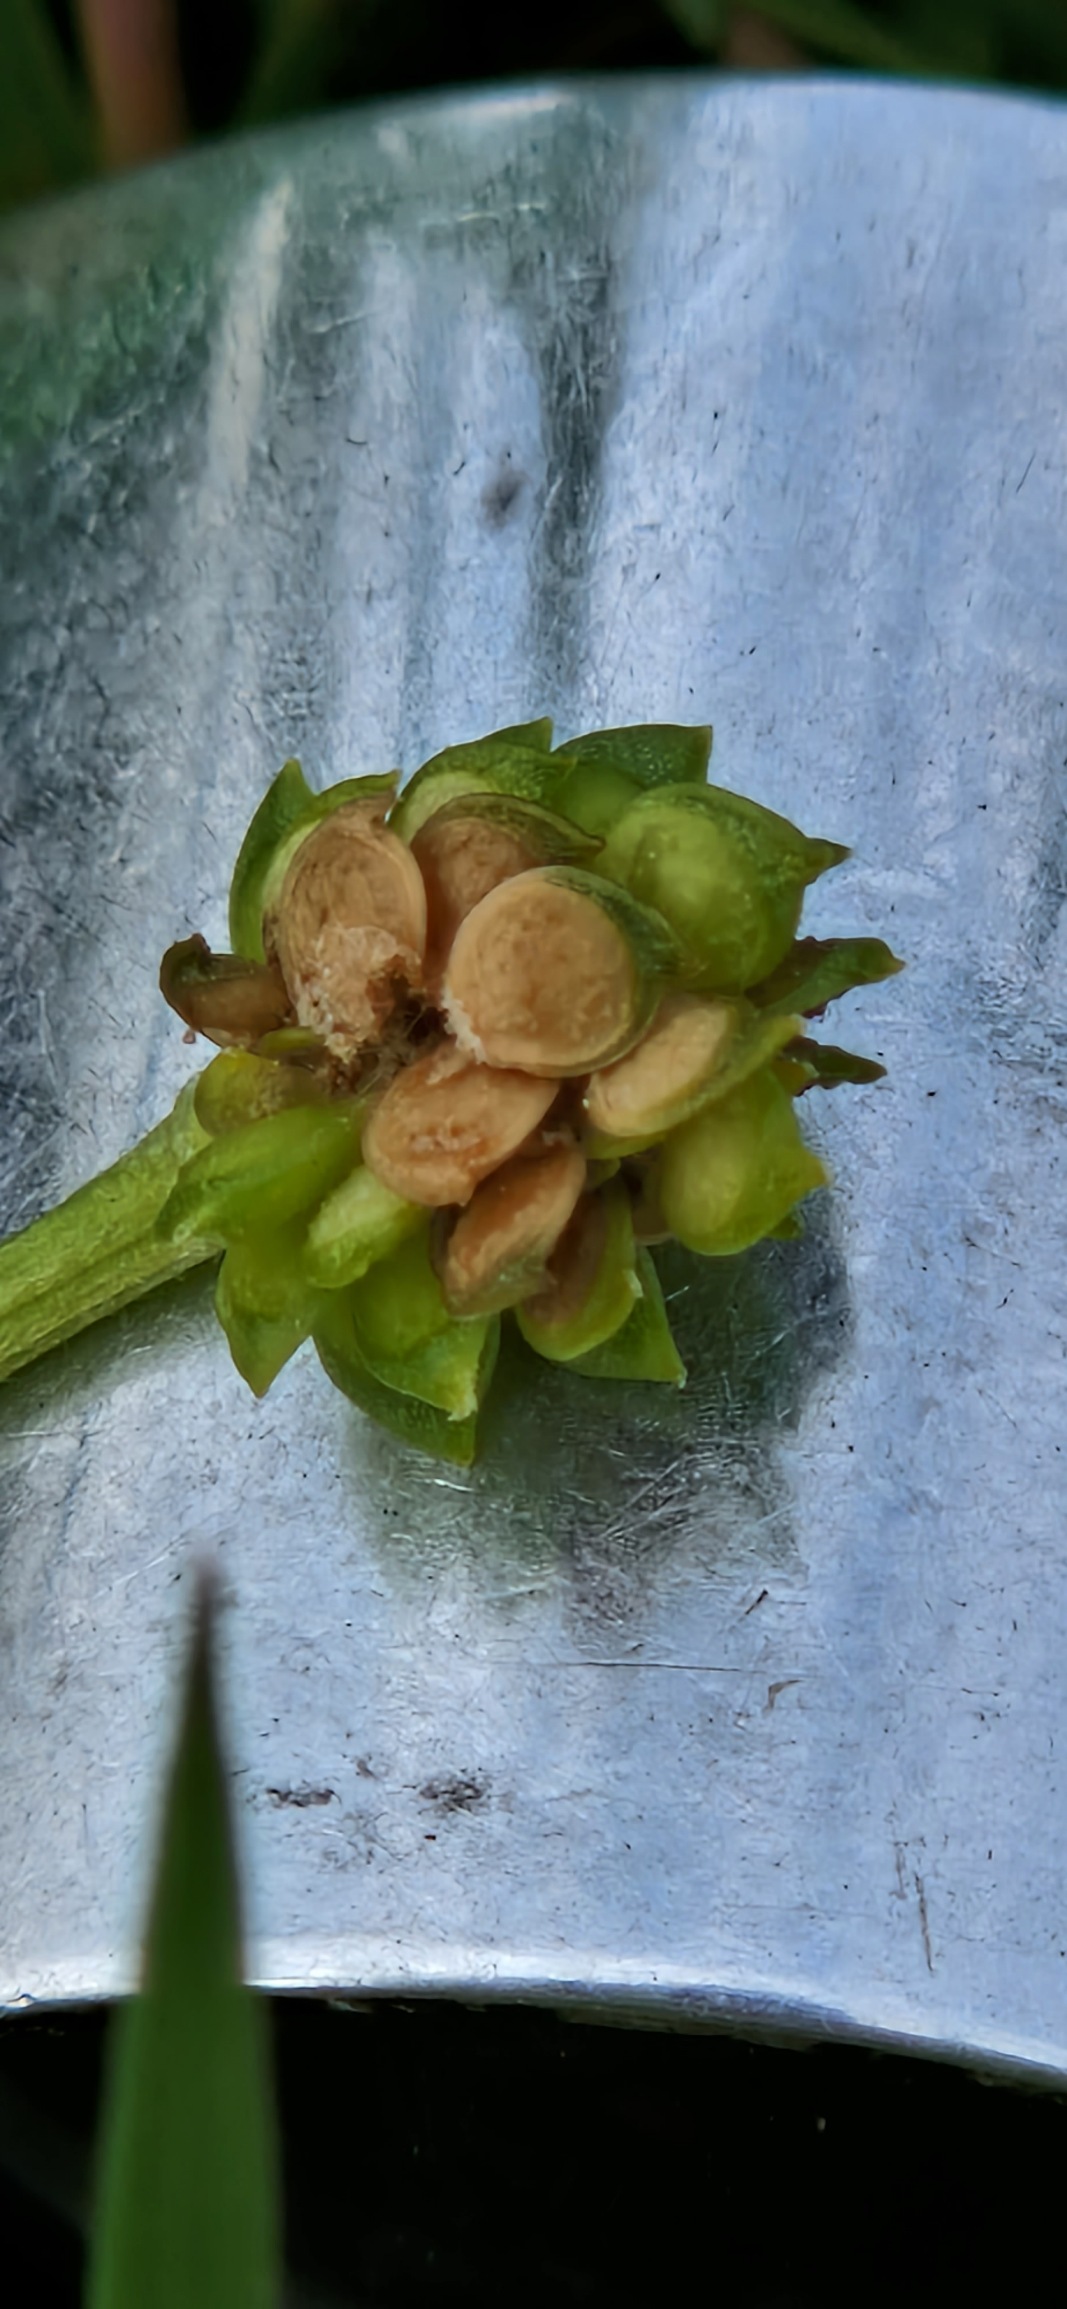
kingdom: Plantae
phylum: Tracheophyta
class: Magnoliopsida
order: Ranunculales
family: Ranunculaceae
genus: Ranunculus
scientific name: Ranunculus sardous
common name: Stivhåret ranunkel
